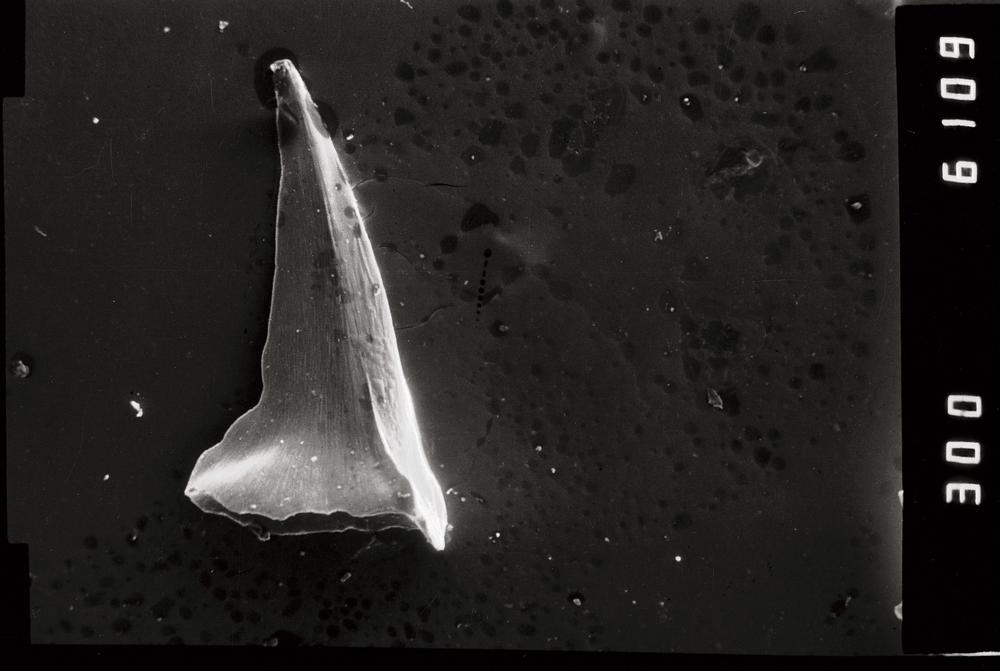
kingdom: Animalia
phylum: Annelida
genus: Paltodus
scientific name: Paltodus
